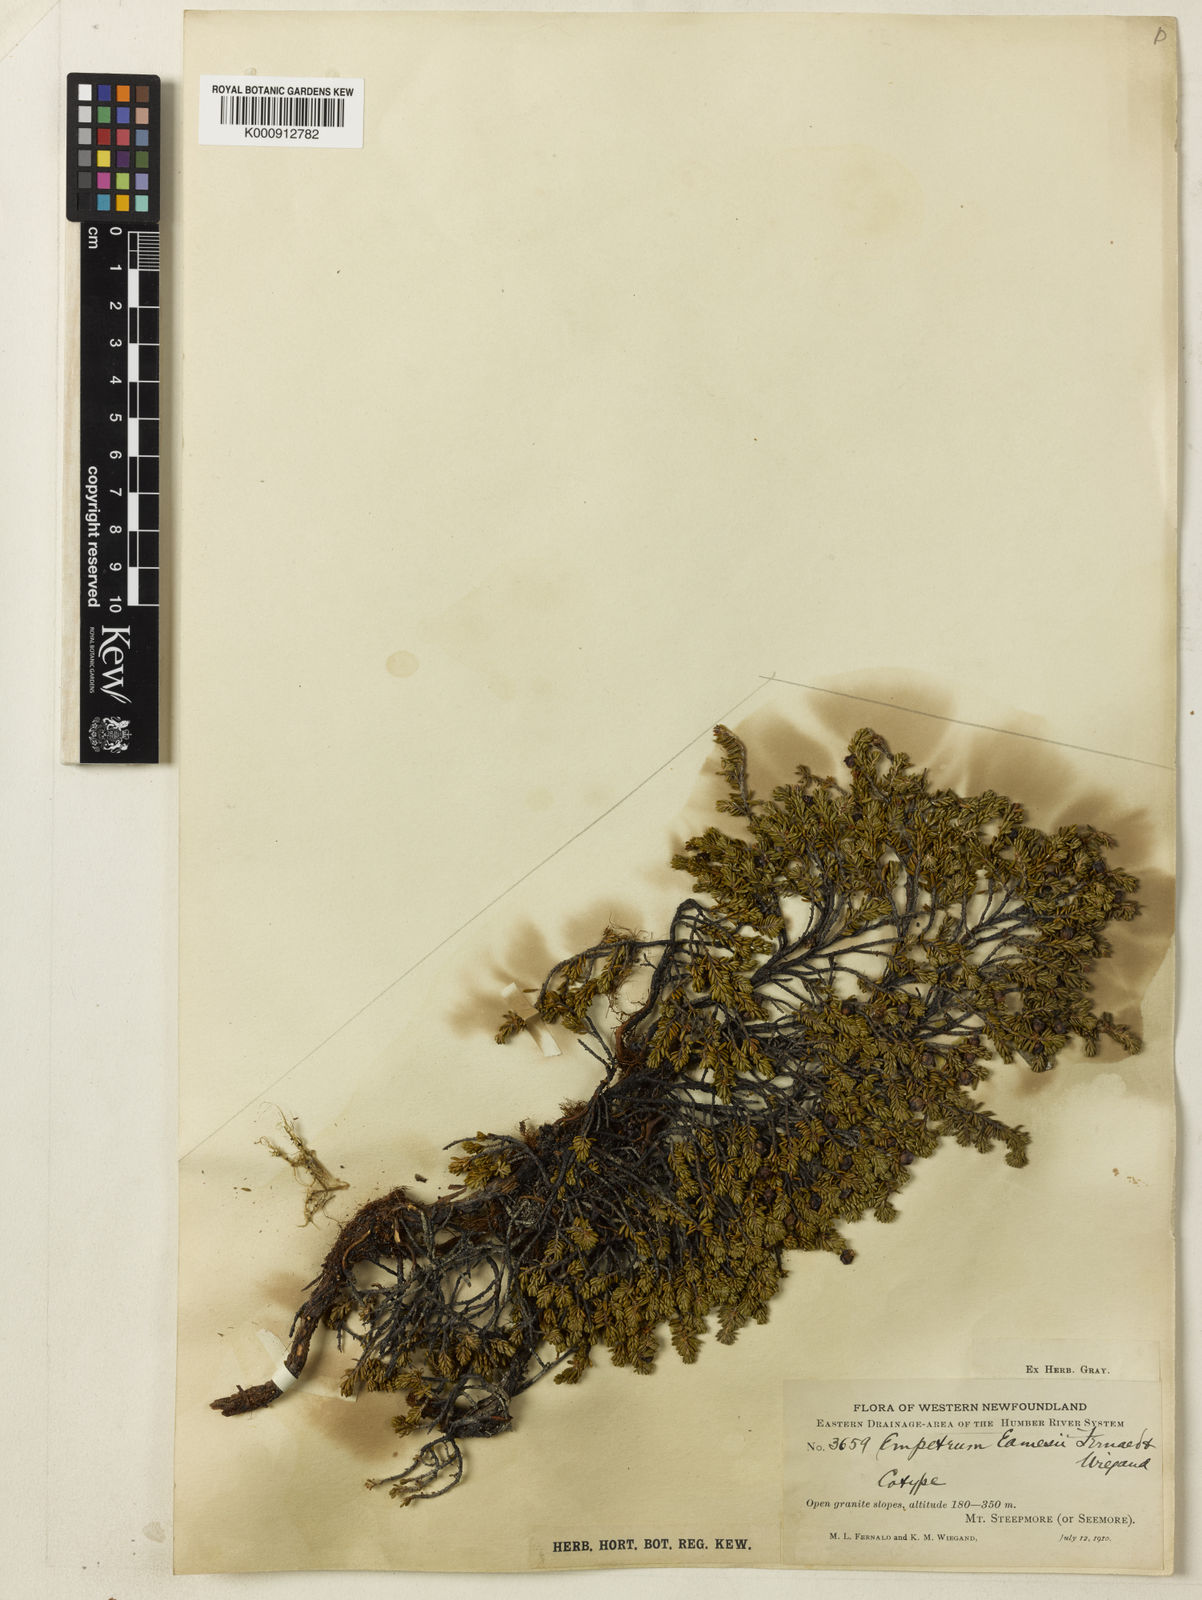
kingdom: Plantae
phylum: Tracheophyta
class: Magnoliopsida
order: Ericales
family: Ericaceae
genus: Empetrum
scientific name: Empetrum eamesii
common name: Pink crowberry
